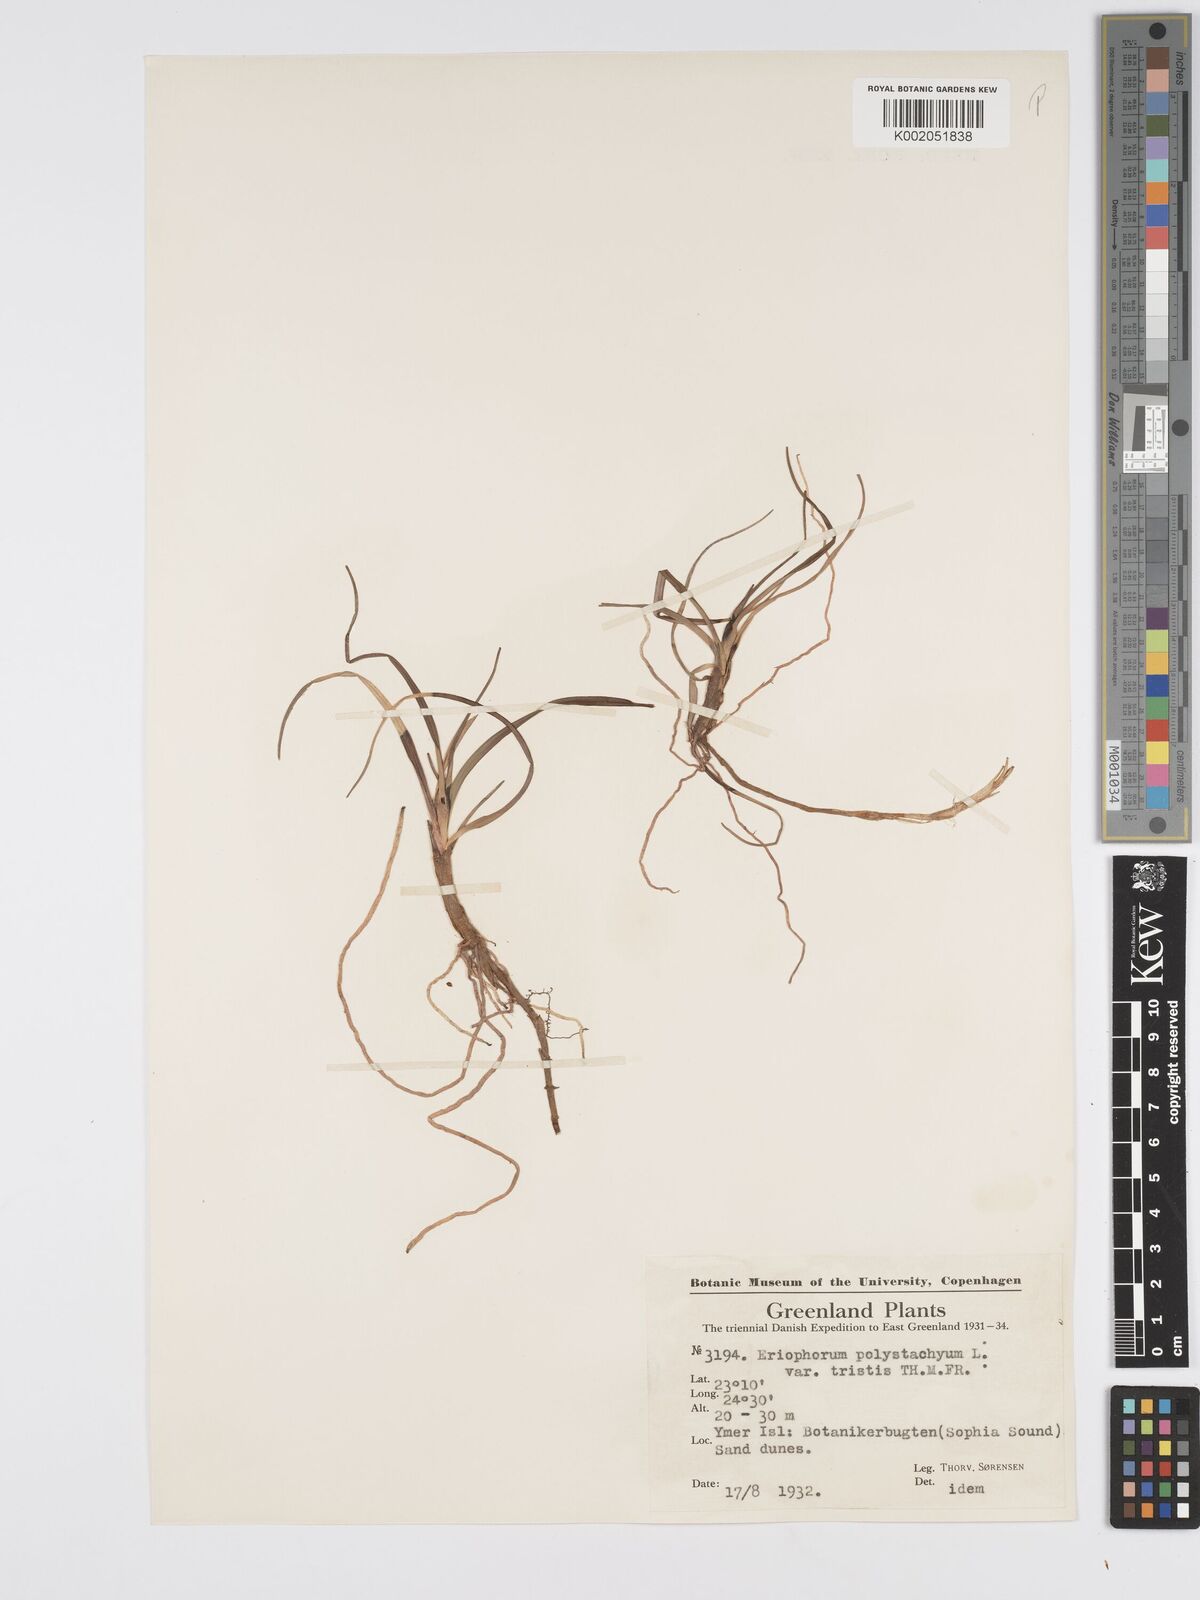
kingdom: Plantae
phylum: Tracheophyta
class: Liliopsida
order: Poales
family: Cyperaceae
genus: Eriophorum
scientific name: Eriophorum
